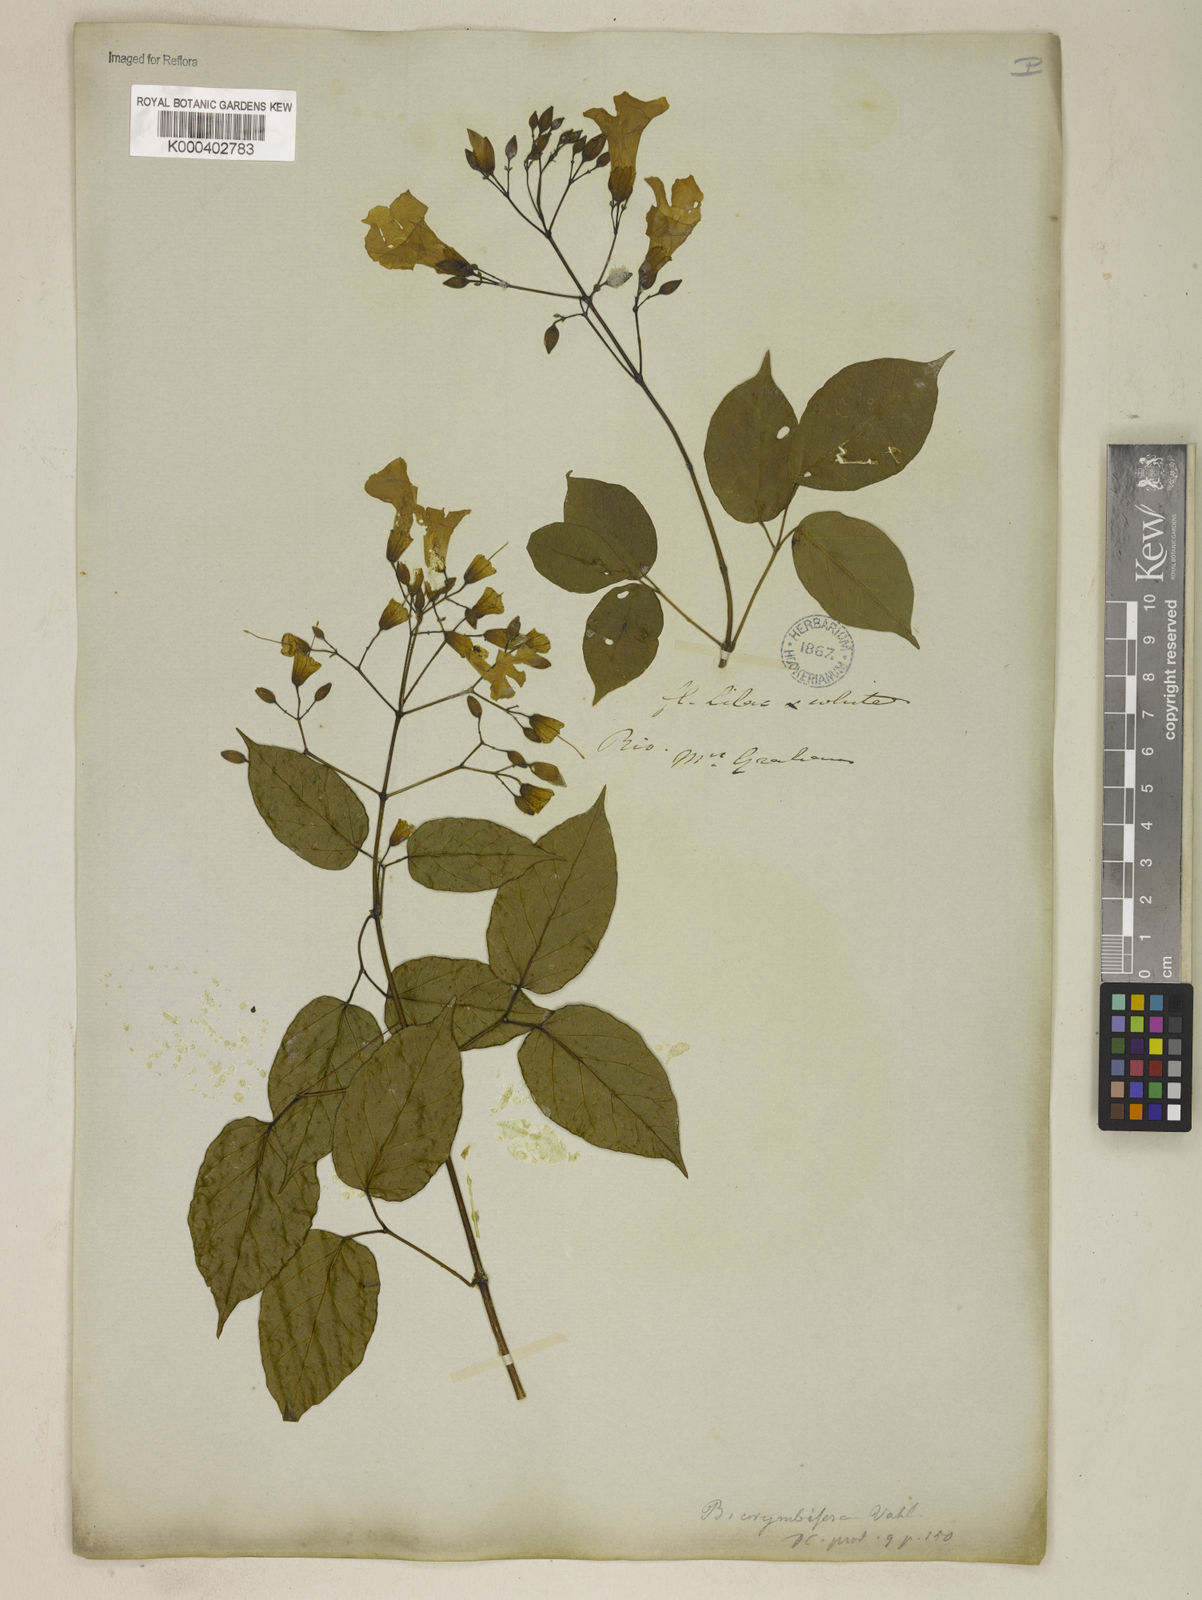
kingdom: Plantae
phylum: Tracheophyta
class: Magnoliopsida
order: Lamiales
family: Bignoniaceae
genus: Tanaecium
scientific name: Tanaecium selloi
